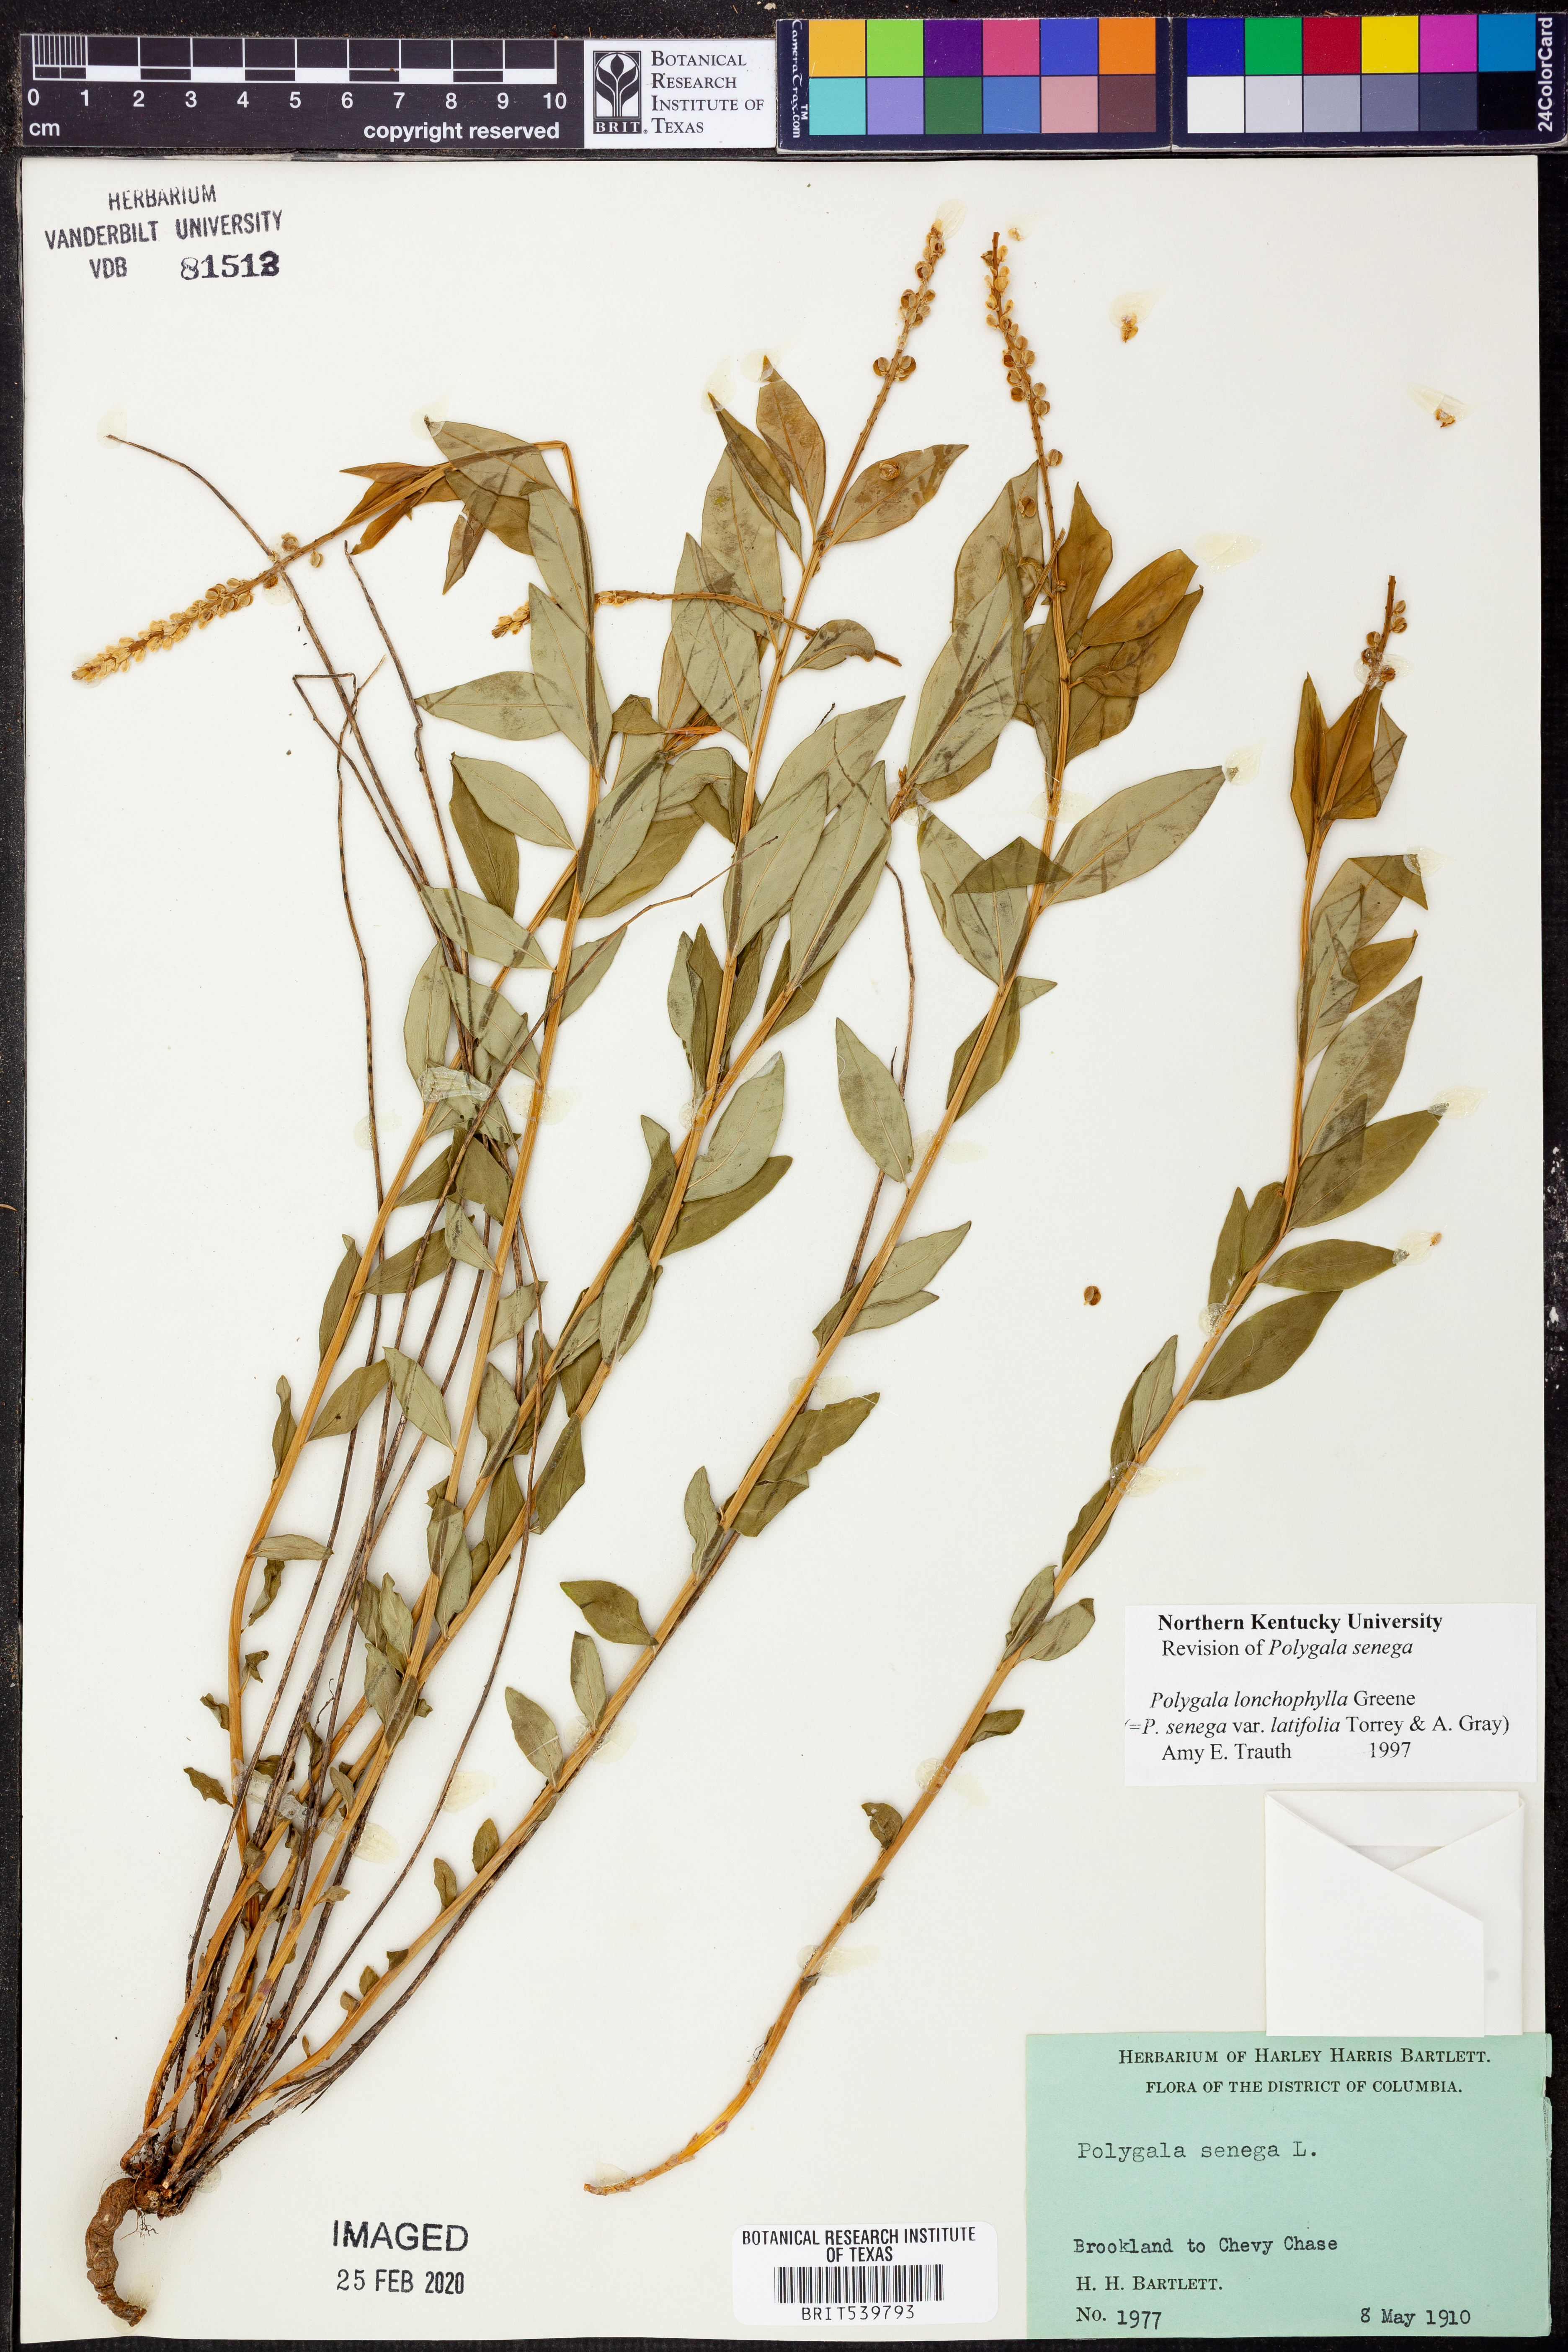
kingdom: Plantae
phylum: Tracheophyta
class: Magnoliopsida
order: Fabales
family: Polygalaceae
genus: Polygala
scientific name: Polygala senega
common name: Seneca snakeroot
